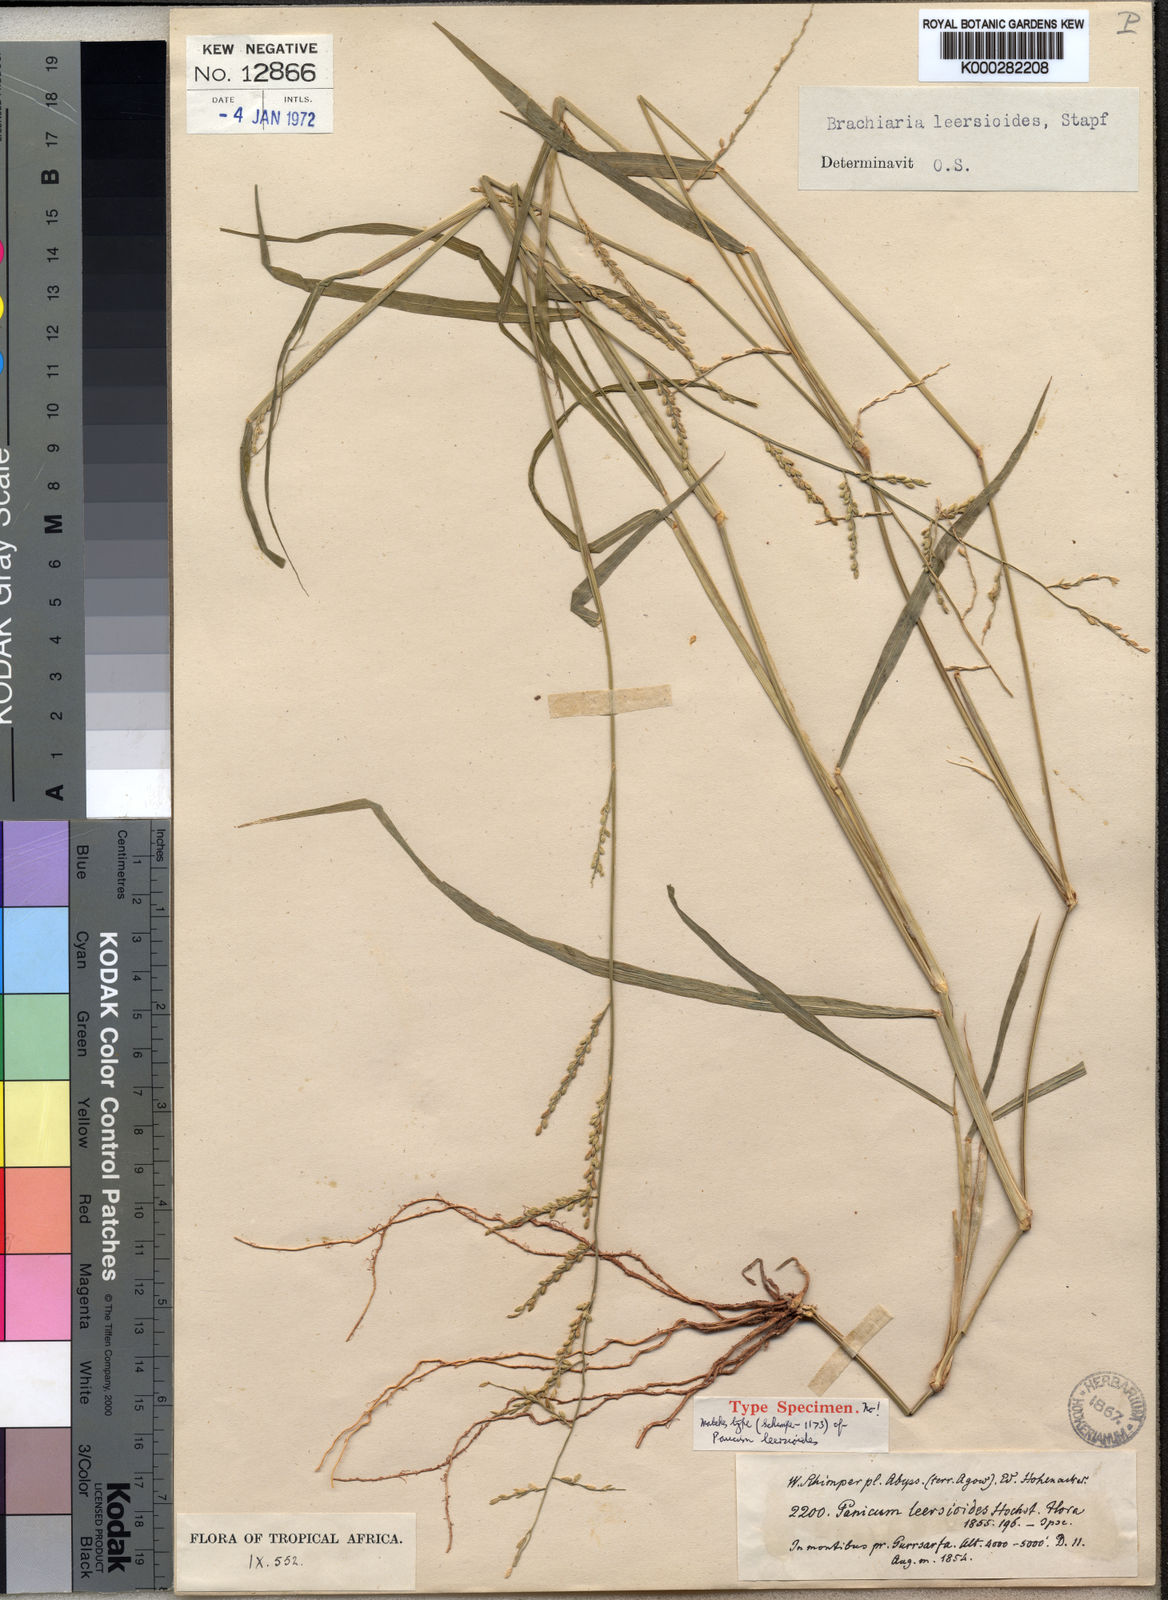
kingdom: Plantae
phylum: Tracheophyta
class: Liliopsida
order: Poales
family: Poaceae
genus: Urochloa
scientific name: Urochloa leersioides
